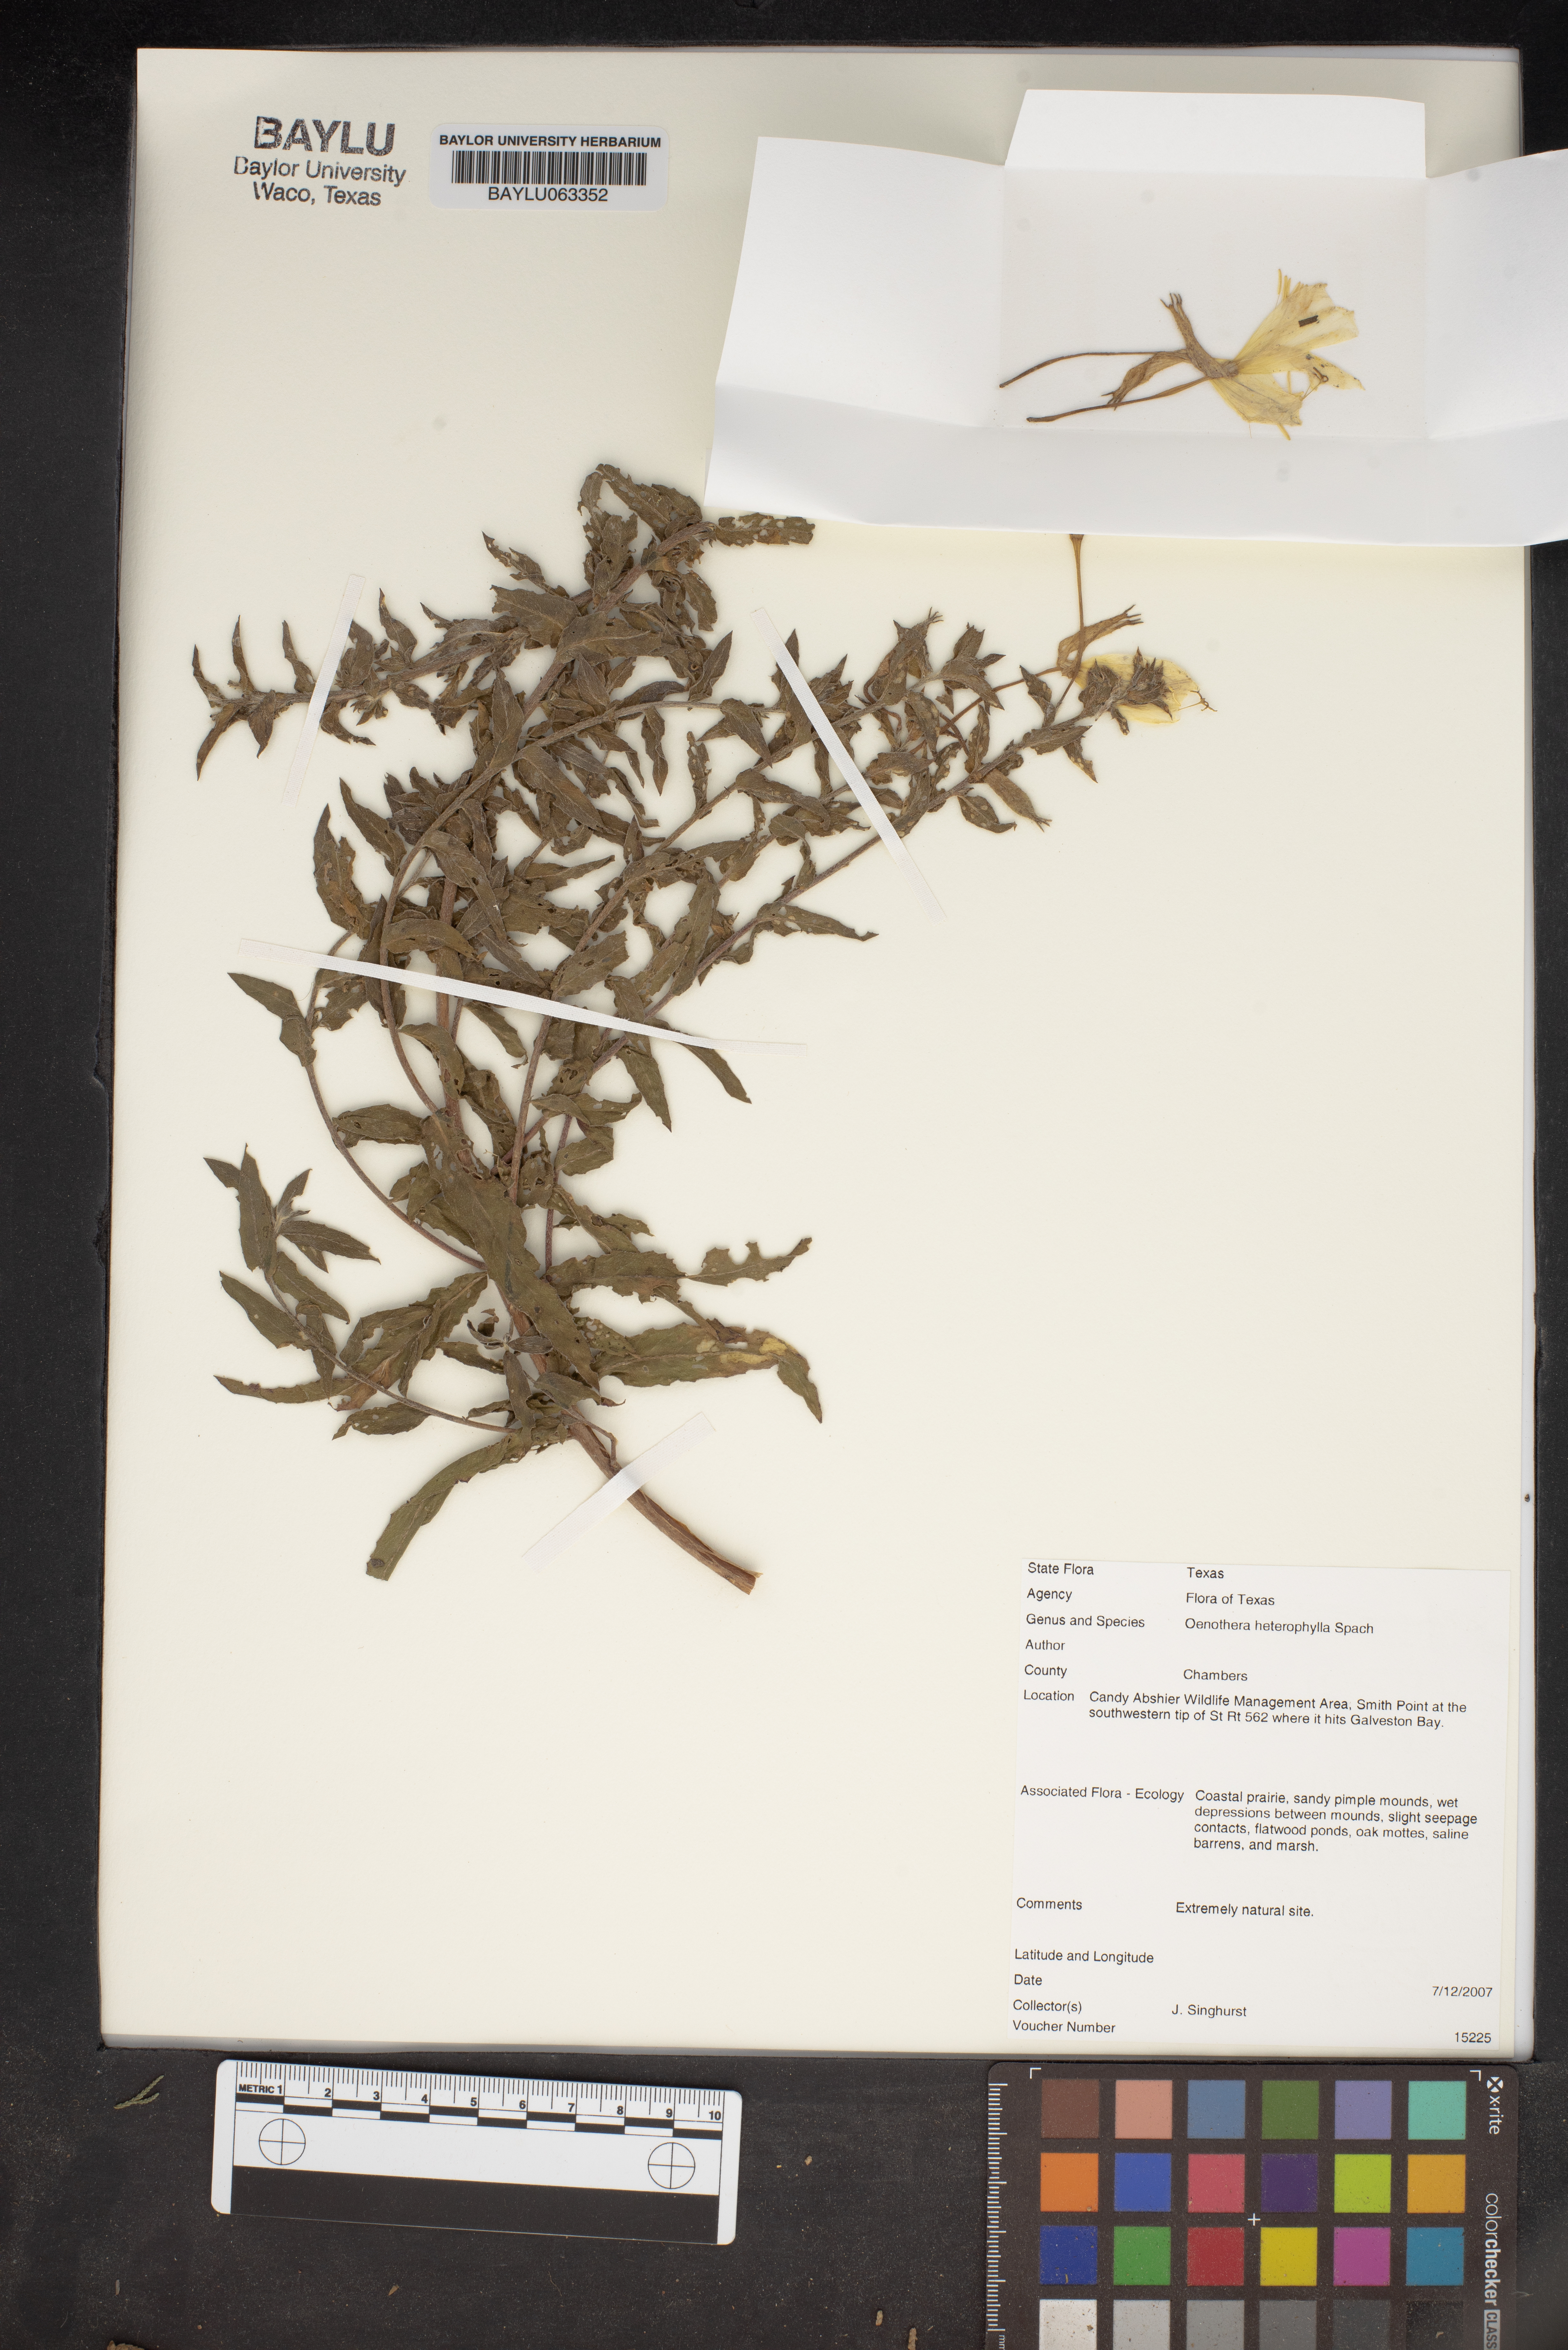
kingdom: Plantae
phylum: Tracheophyta
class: Magnoliopsida
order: Myrtales
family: Onagraceae
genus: Camissonia
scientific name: Camissonia dentata
